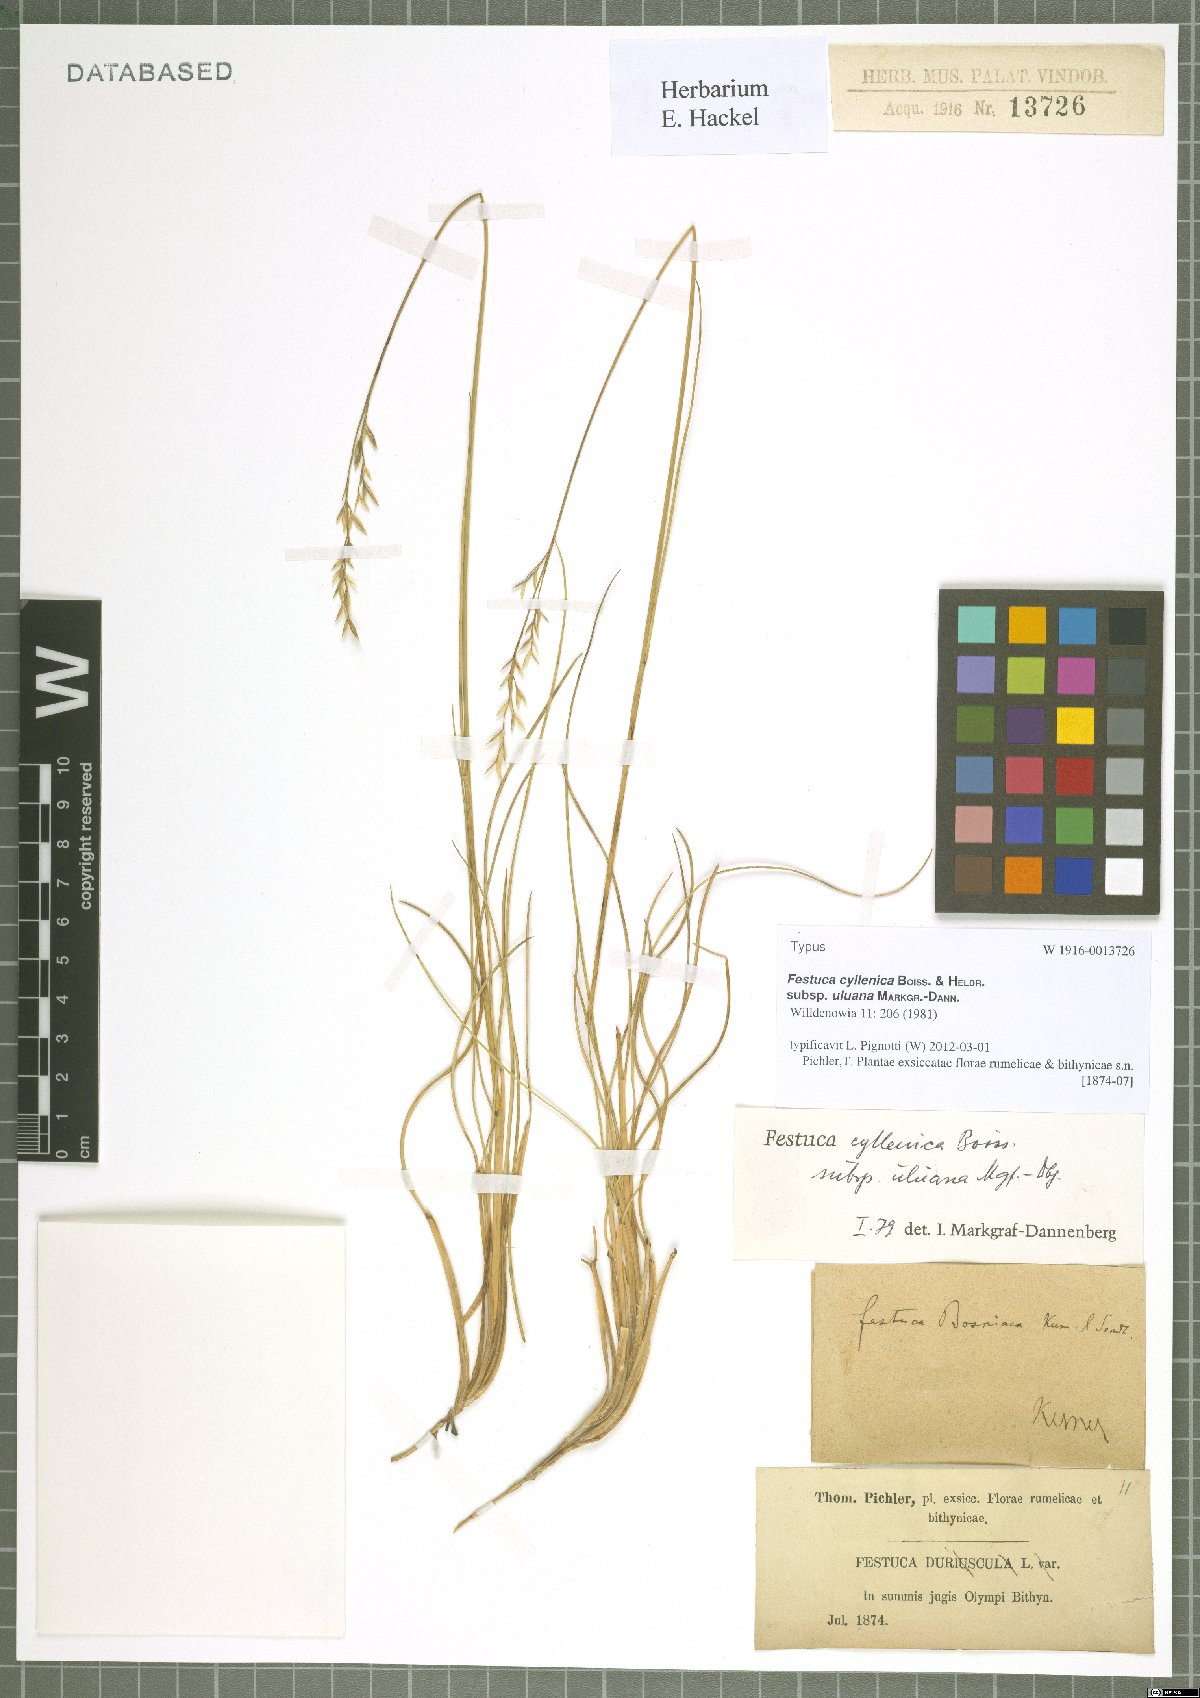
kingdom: Plantae
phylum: Tracheophyta
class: Liliopsida
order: Poales
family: Poaceae
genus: Festuca
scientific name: Festuca cyllenica
